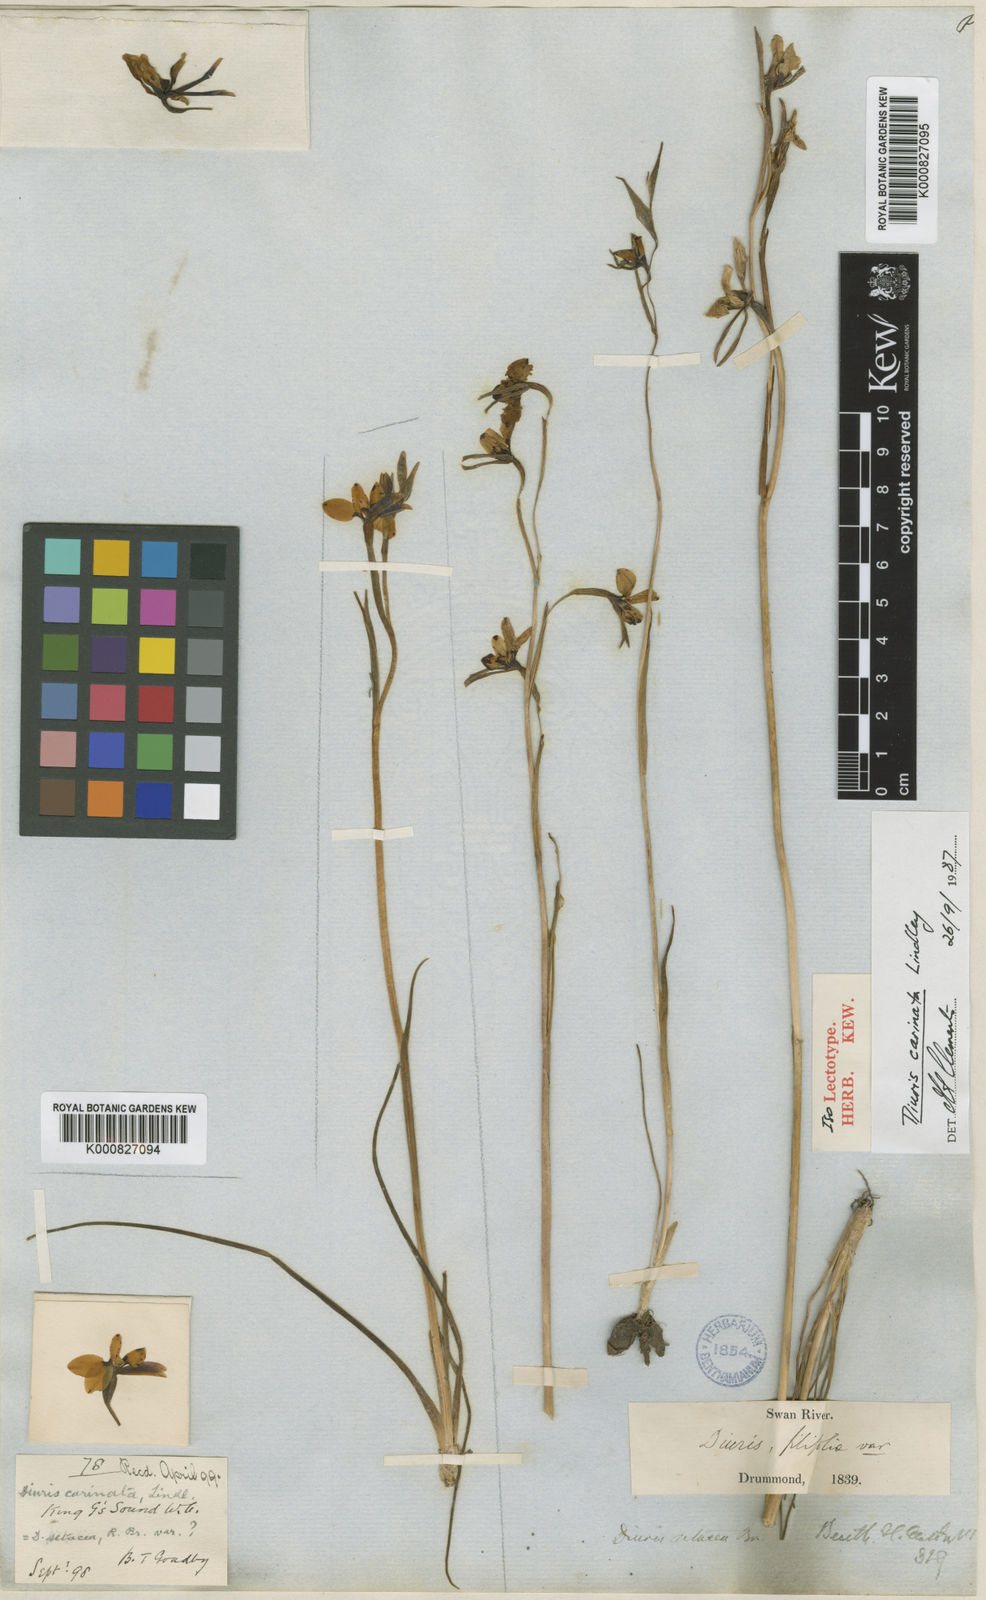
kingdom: Plantae
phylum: Tracheophyta
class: Liliopsida
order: Asparagales
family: Orchidaceae
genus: Diuris
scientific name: Diuris setacea
